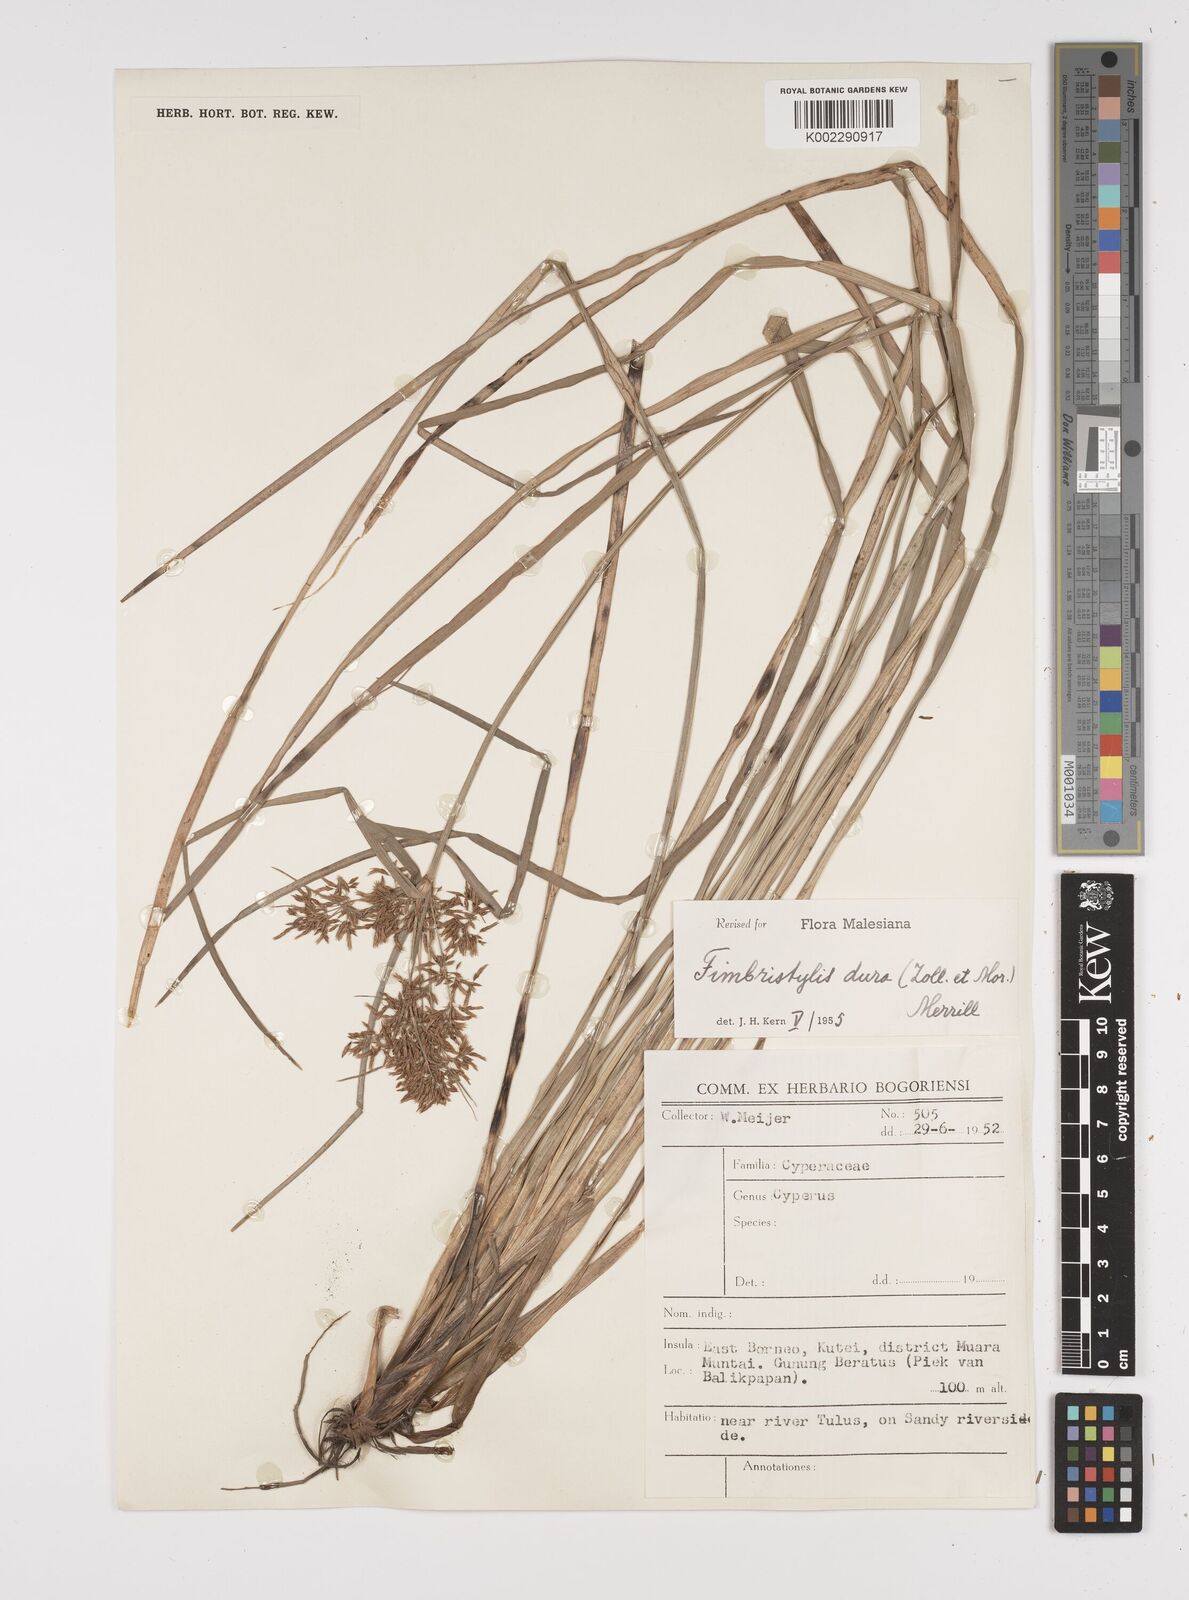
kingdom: Plantae
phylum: Tracheophyta
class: Liliopsida
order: Poales
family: Cyperaceae
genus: Fimbristylis
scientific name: Fimbristylis dura
